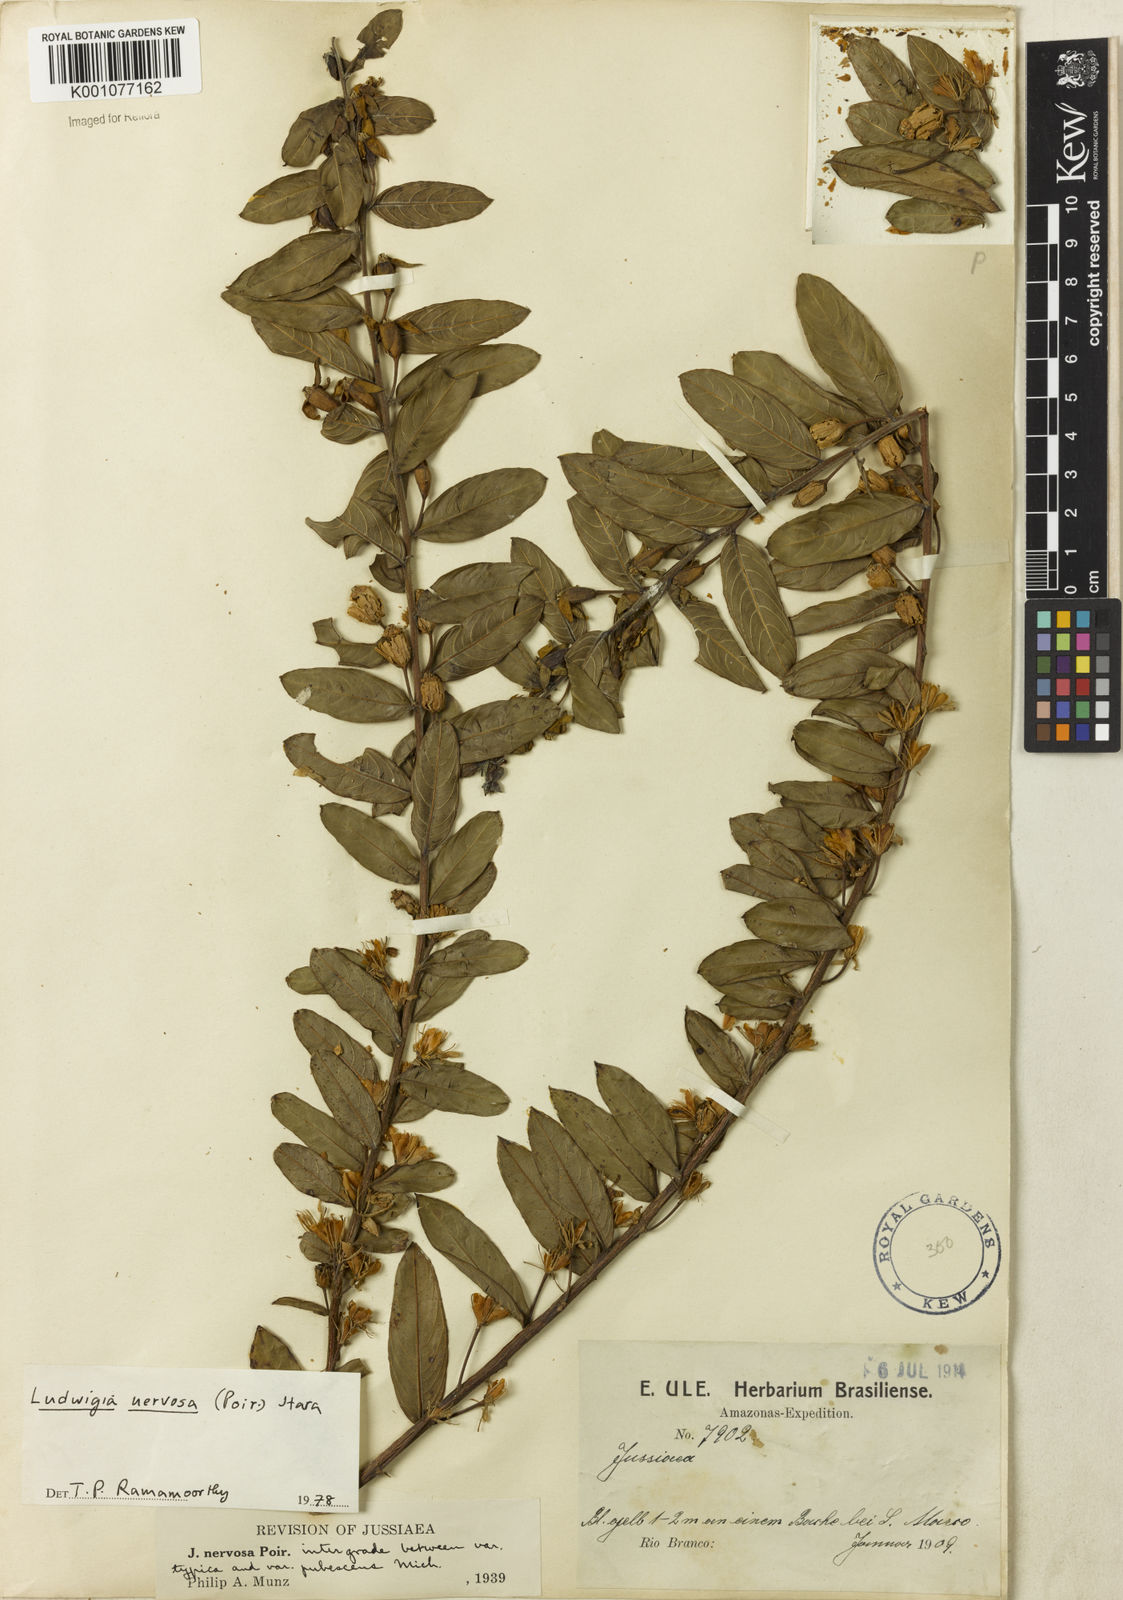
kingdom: Plantae
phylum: Tracheophyta
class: Magnoliopsida
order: Myrtales
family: Onagraceae
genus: Ludwigia
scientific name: Ludwigia nervosa
